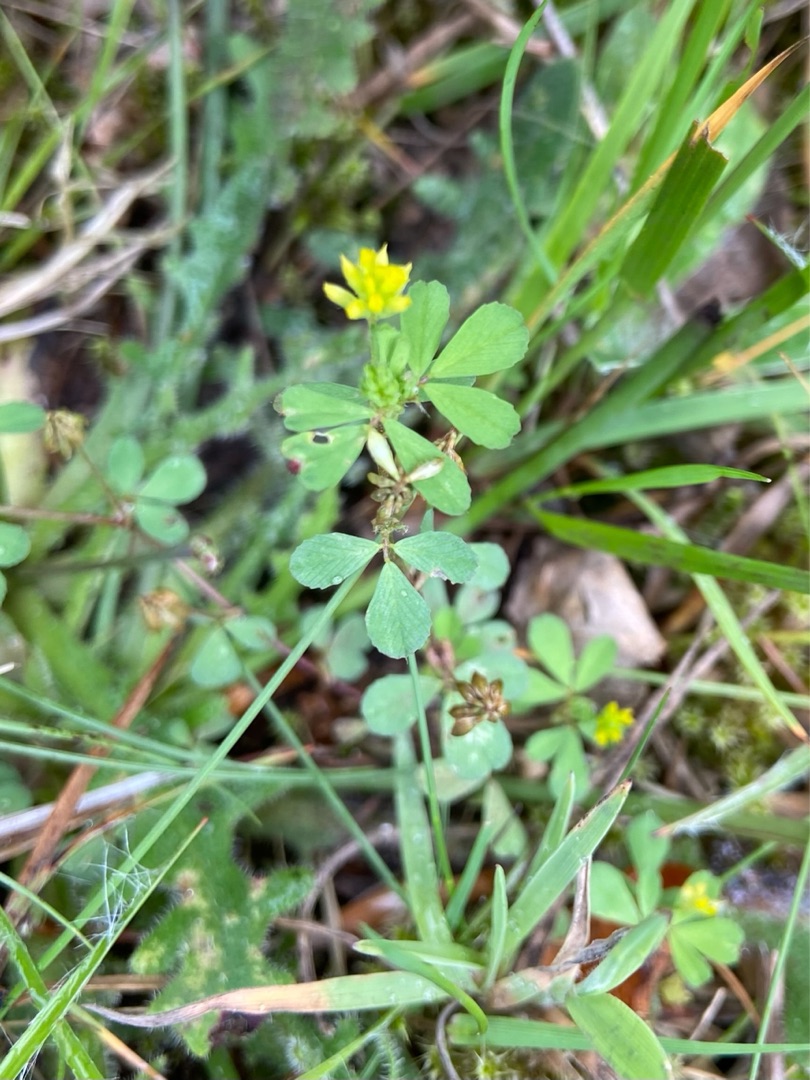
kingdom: Plantae
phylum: Tracheophyta
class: Magnoliopsida
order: Fabales
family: Fabaceae
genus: Trifolium
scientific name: Trifolium dubium
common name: Fin kløver
